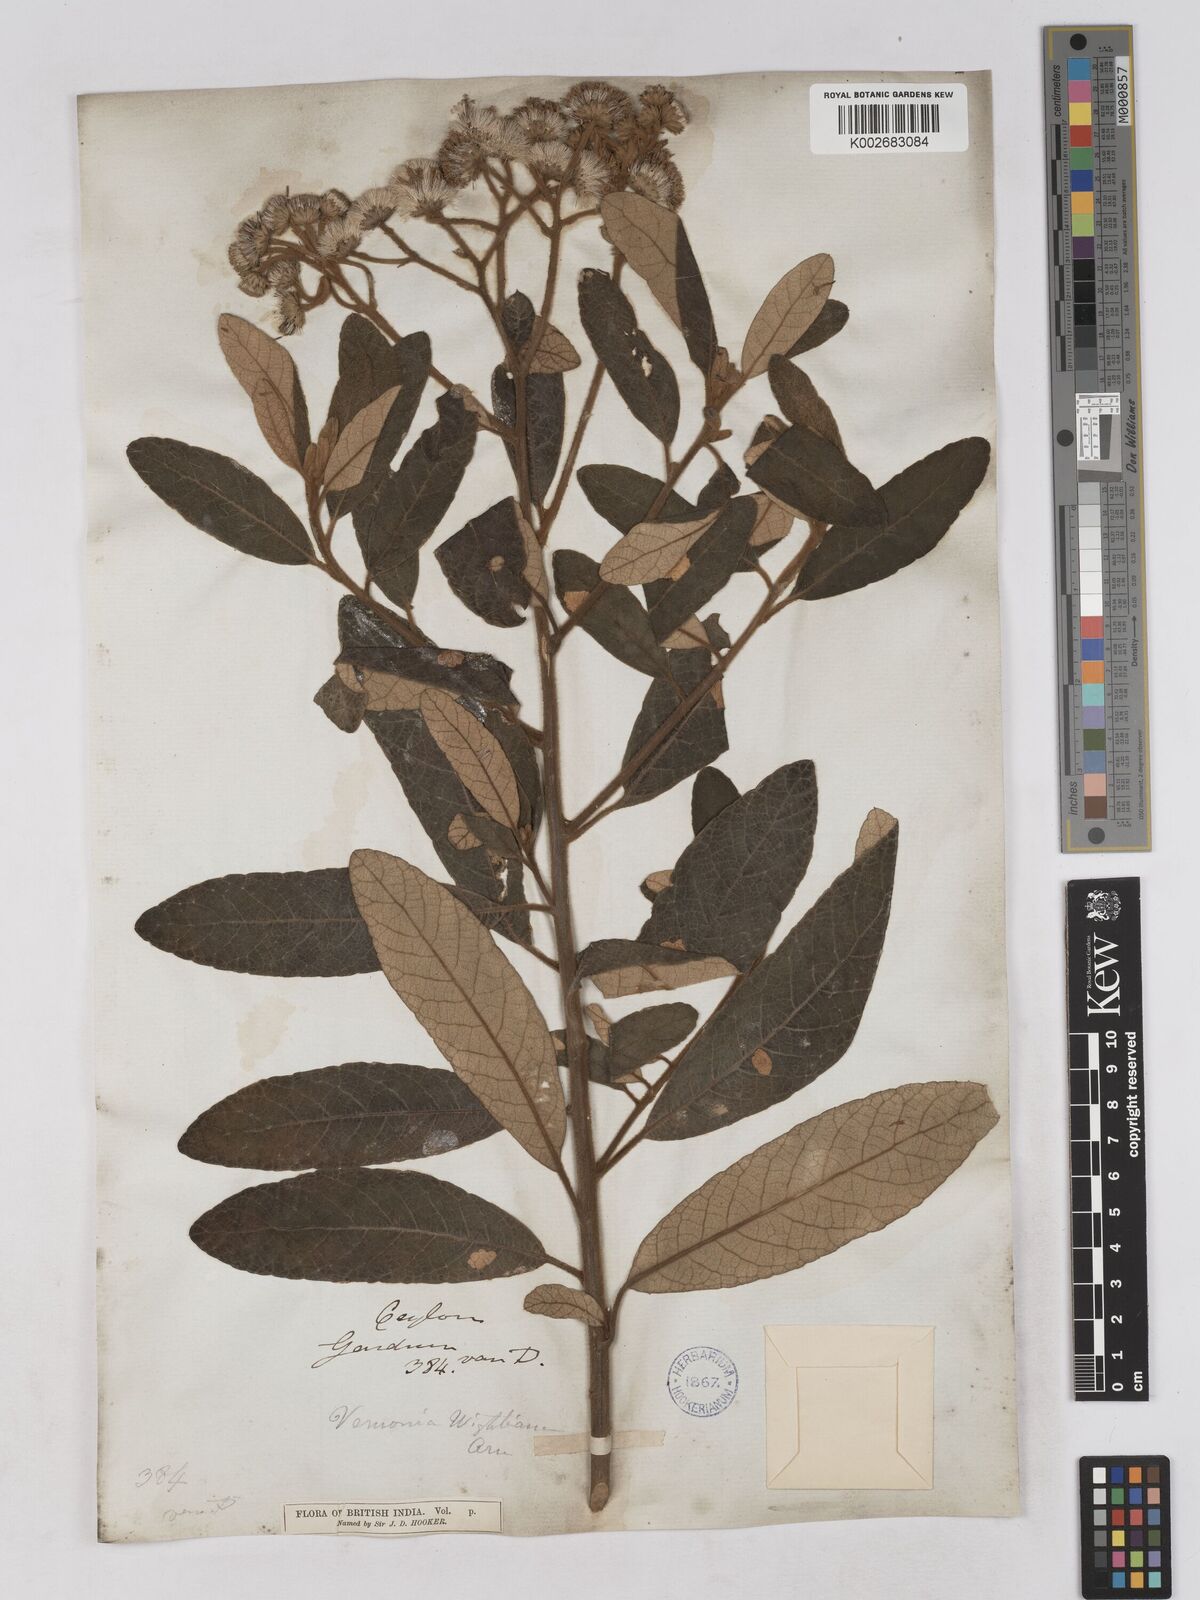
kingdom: Plantae
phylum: Tracheophyta
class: Magnoliopsida
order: Asterales
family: Asteraceae
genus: Uniyala
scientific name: Uniyala wightiana
